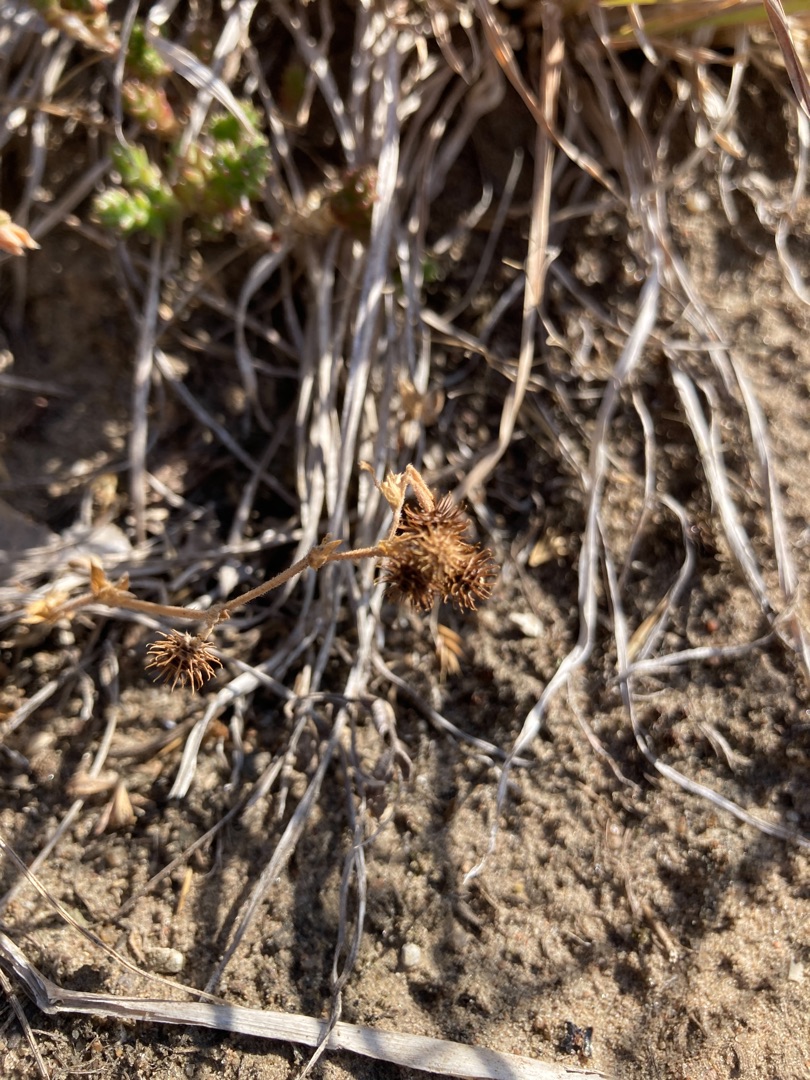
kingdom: Plantae
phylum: Tracheophyta
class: Magnoliopsida
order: Fabales
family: Fabaceae
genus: Medicago
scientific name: Medicago minima
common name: Liden sneglebælg
